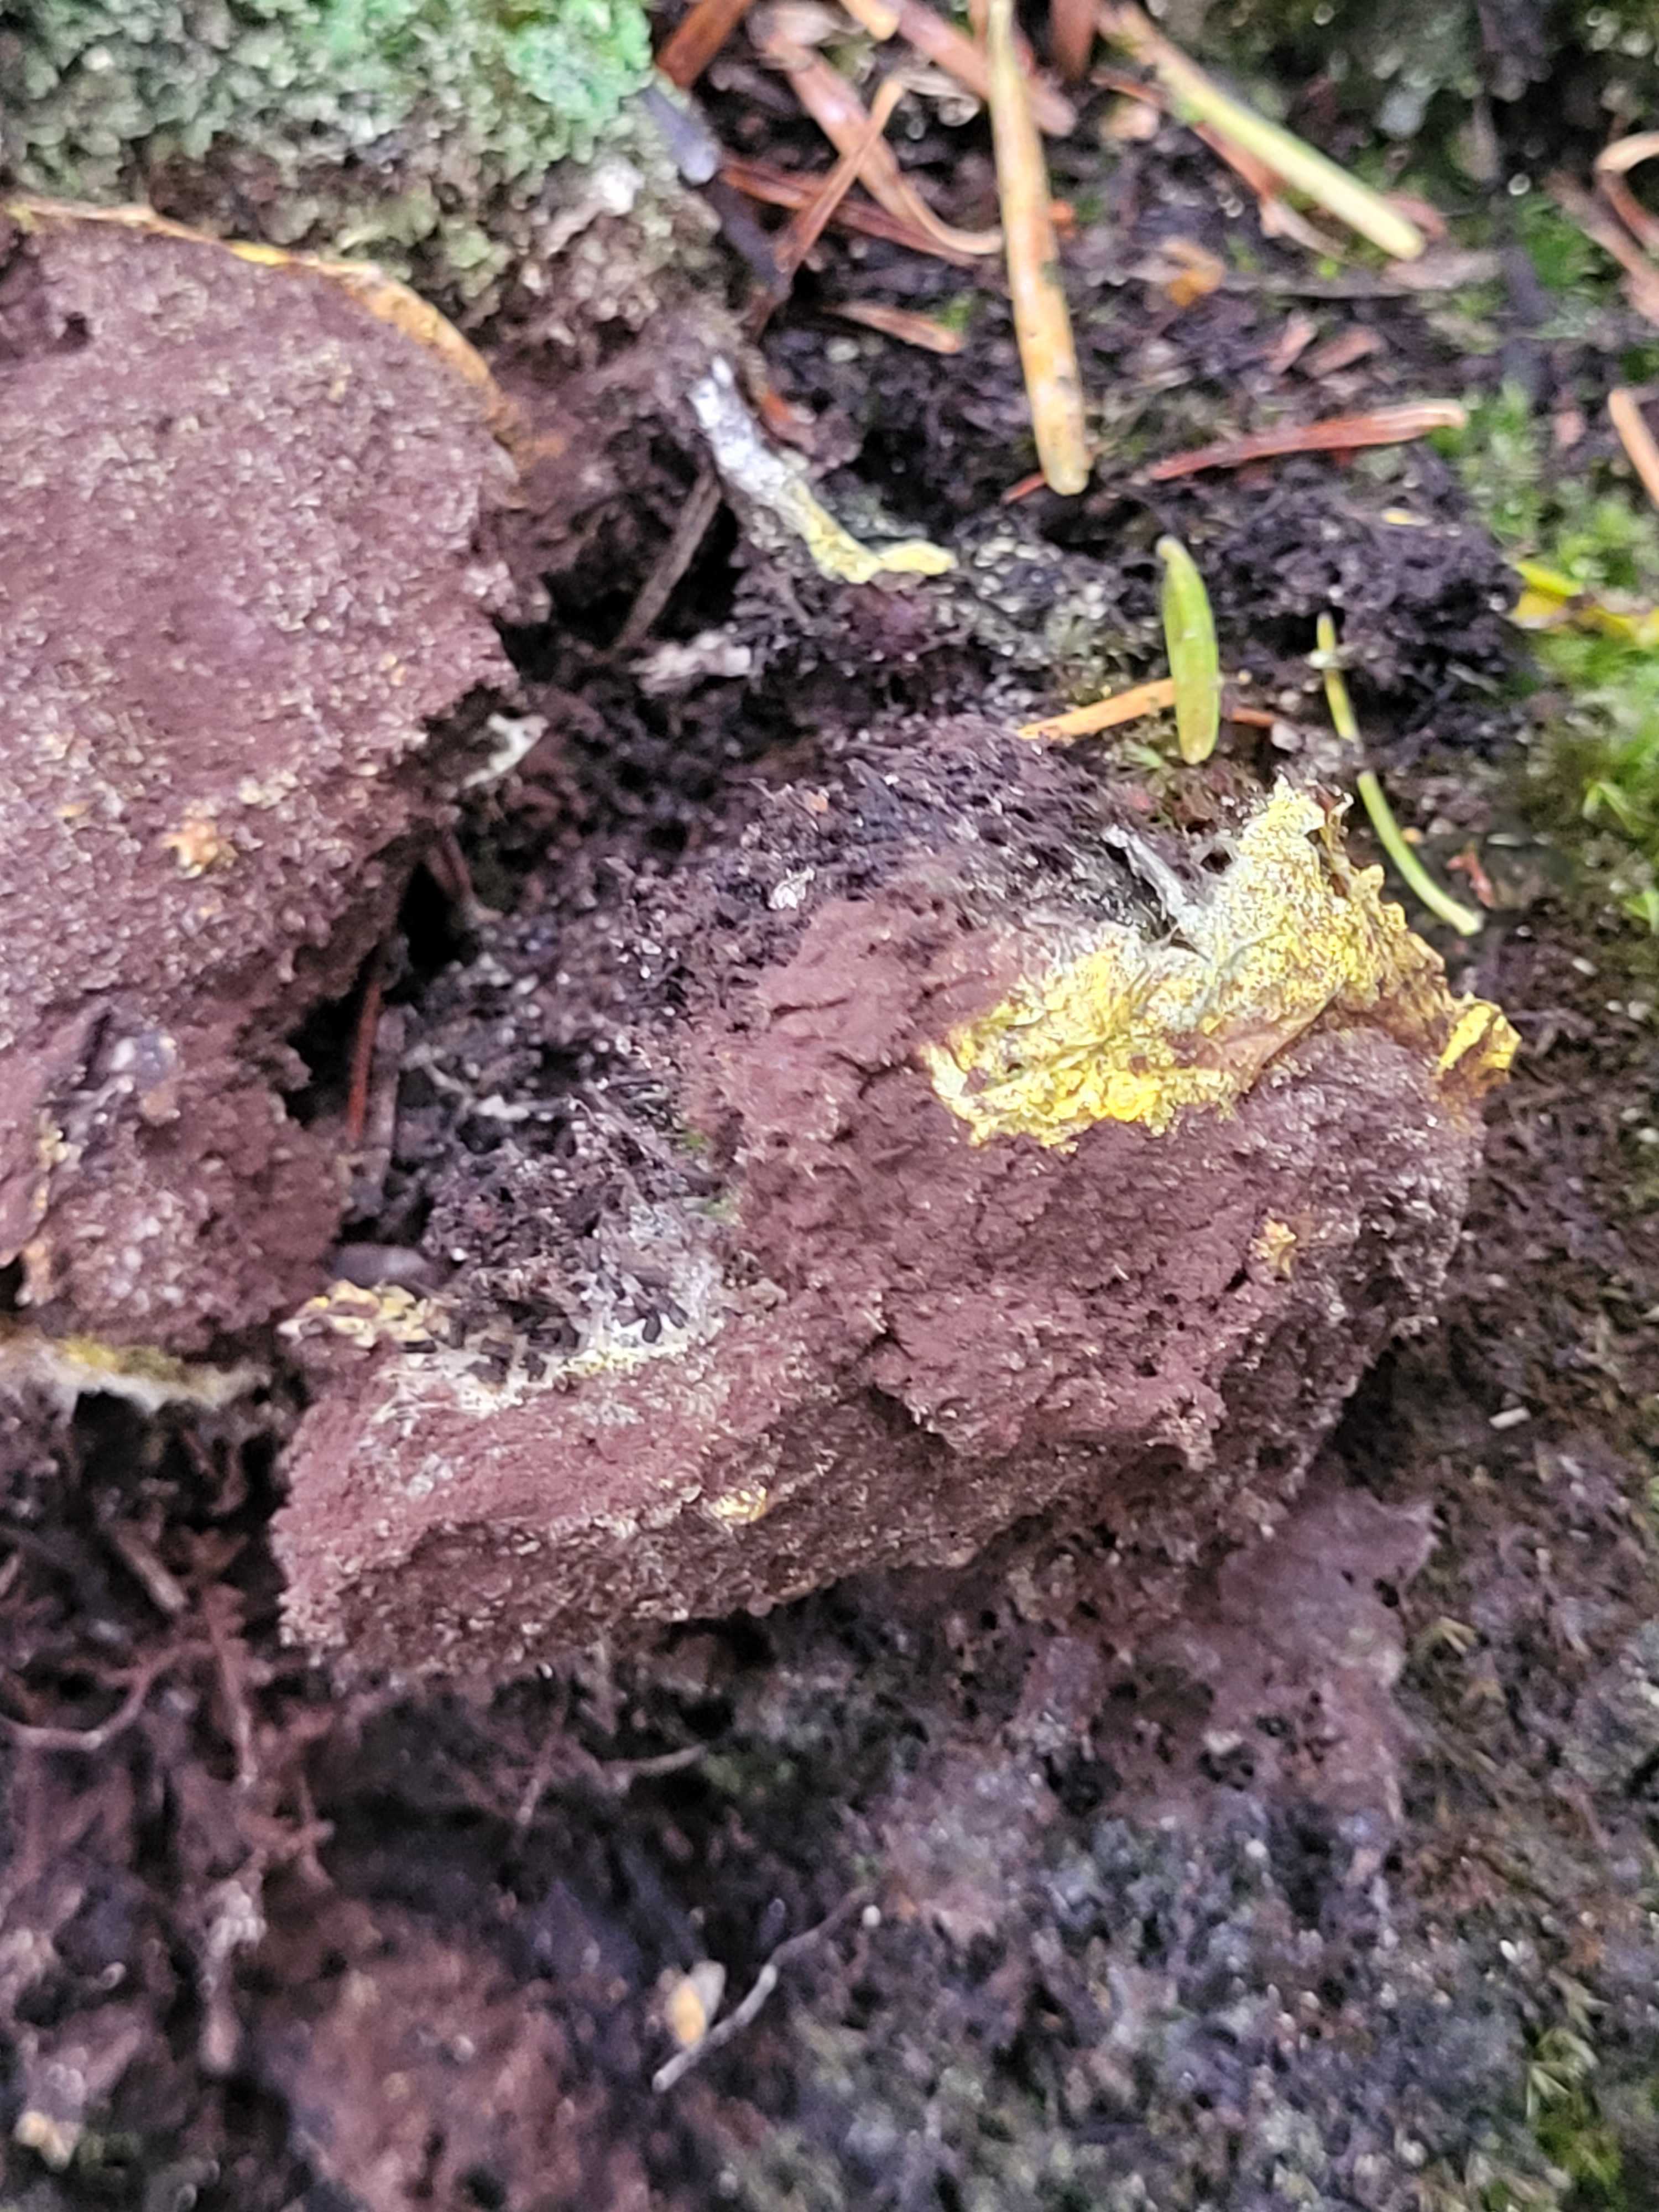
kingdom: Protozoa
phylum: Mycetozoa
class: Myxomycetes
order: Physarales
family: Physaraceae
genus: Fuligo
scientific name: Fuligo septica
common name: gul troldsmør
